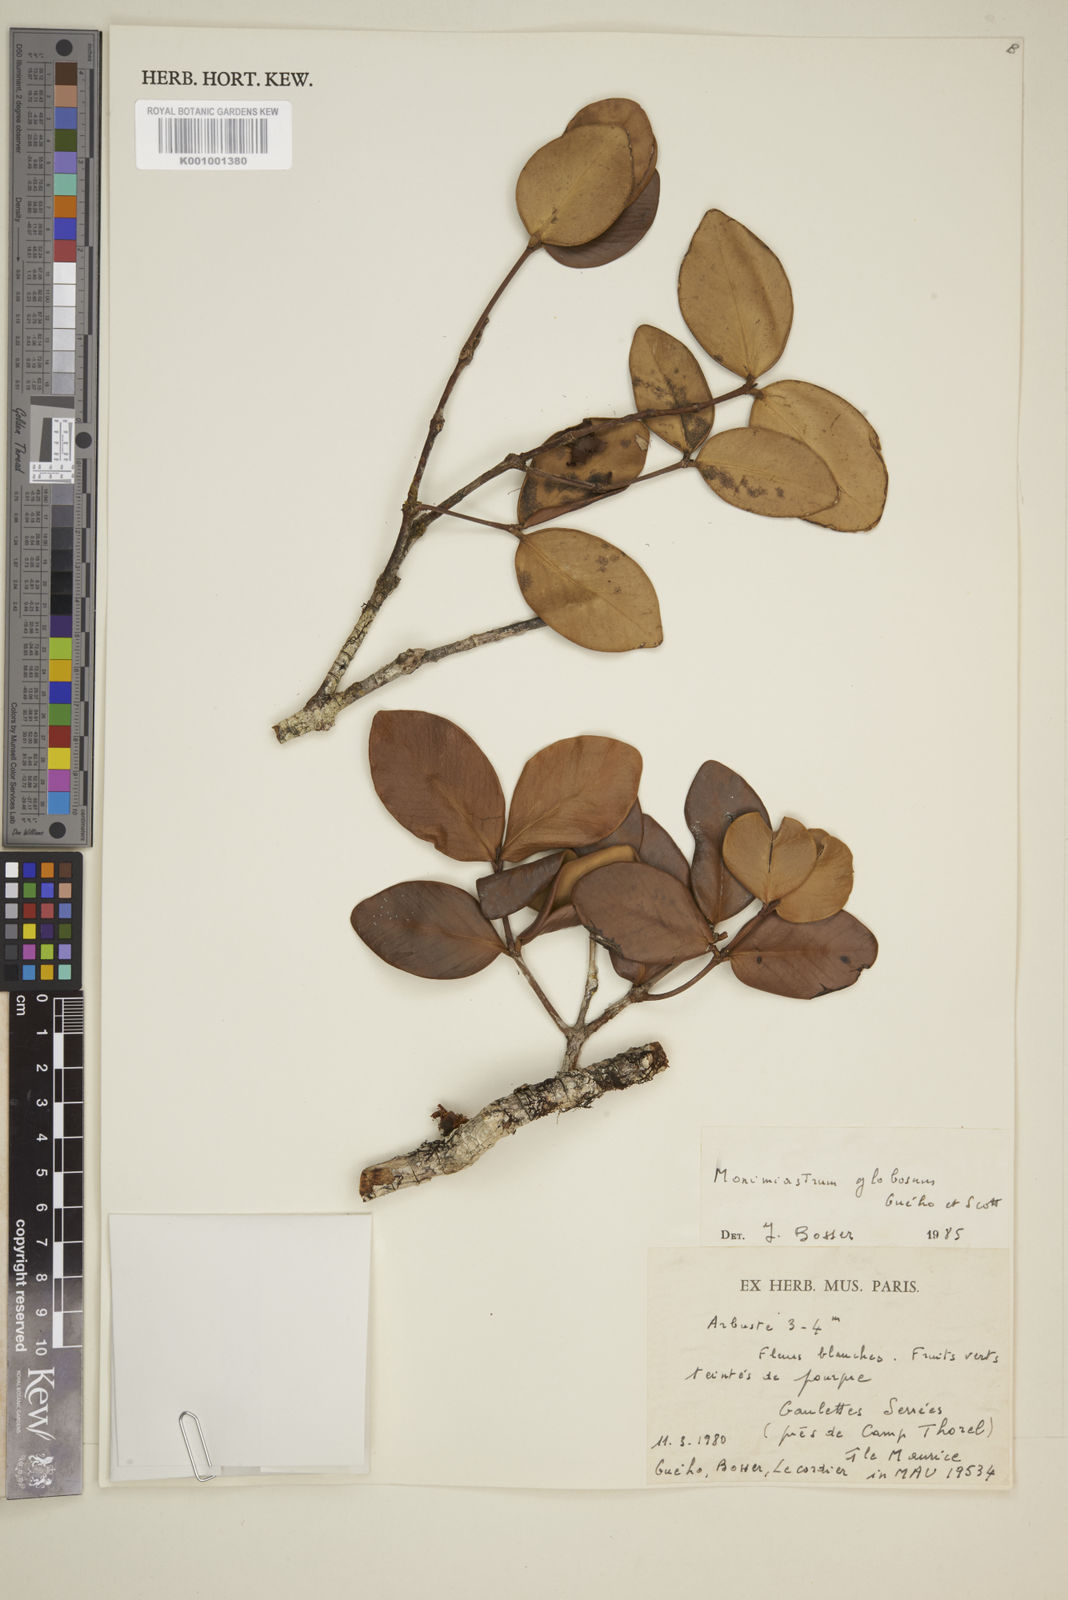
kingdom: Plantae
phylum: Tracheophyta
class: Magnoliopsida
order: Myrtales
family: Myrtaceae
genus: Eugenia
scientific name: Eugenia kanakana
